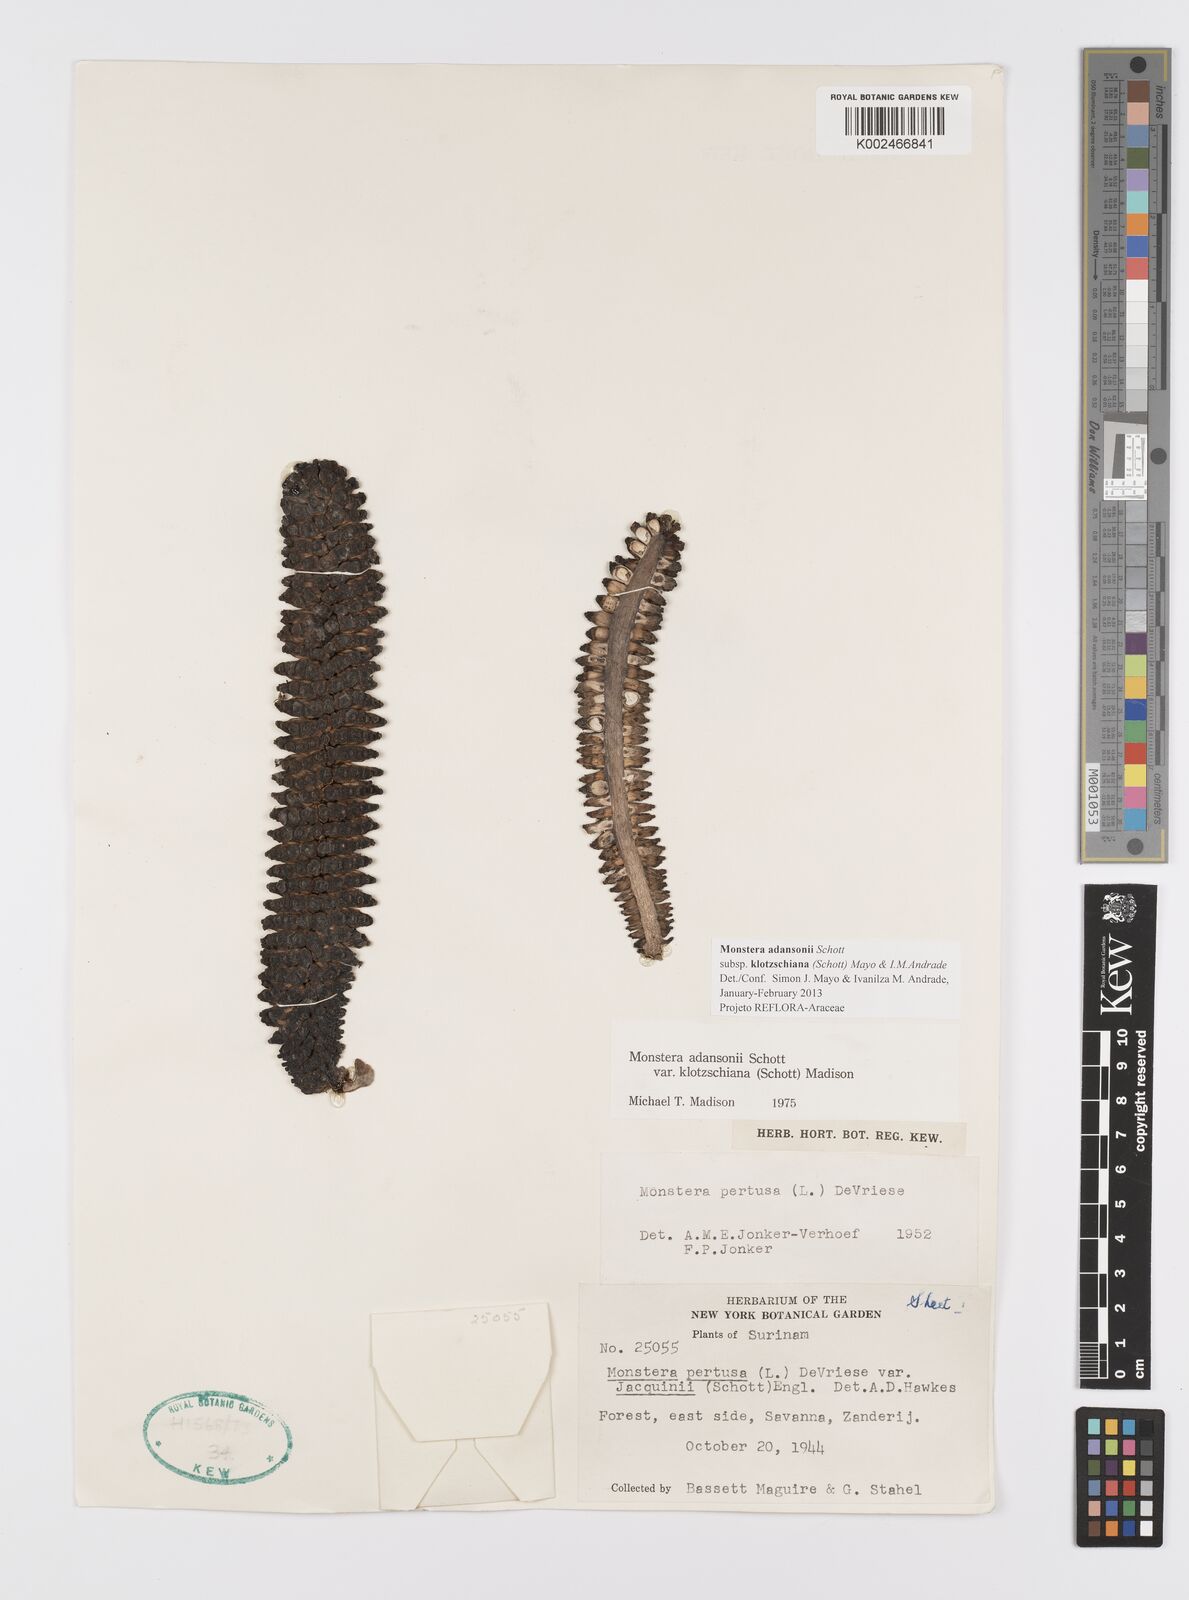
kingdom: Plantae
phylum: Tracheophyta
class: Liliopsida
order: Alismatales
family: Araceae
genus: Monstera
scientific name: Monstera adansonii
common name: Tarovine
